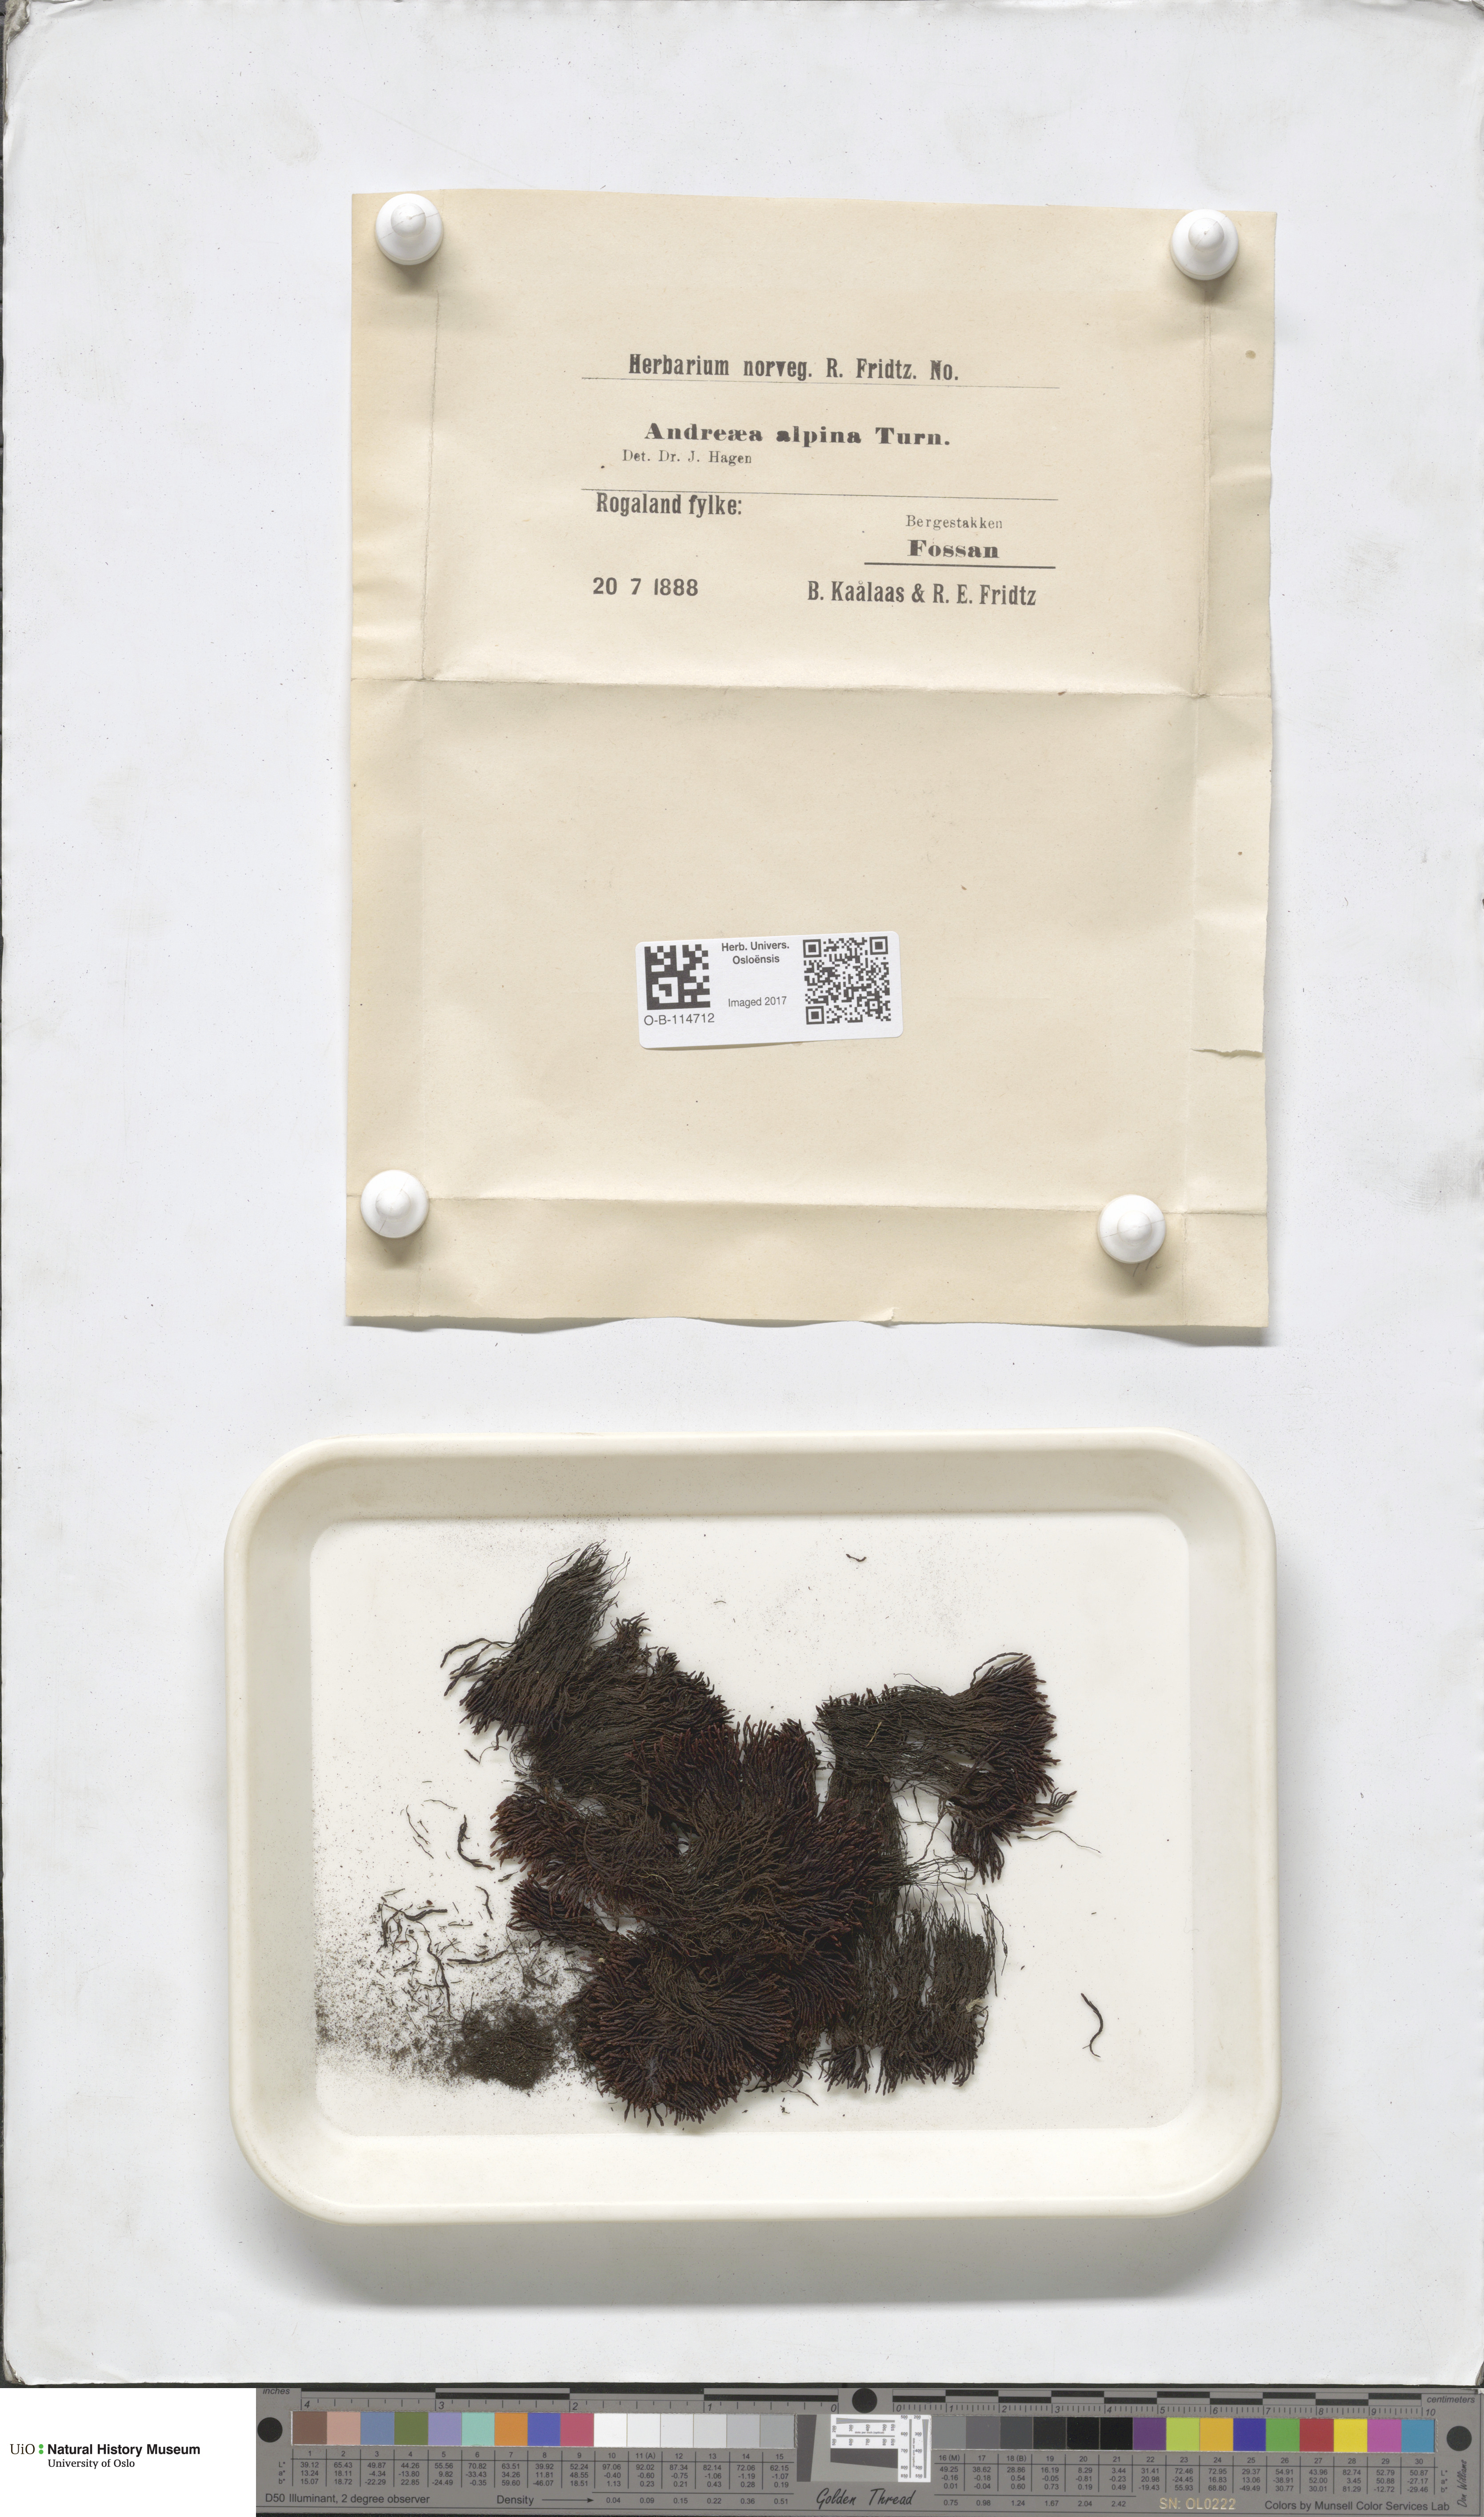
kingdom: Plantae
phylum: Bryophyta
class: Andreaeopsida
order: Andreaeales
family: Andreaeaceae
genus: Andreaea
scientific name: Andreaea hookeri
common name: Alpine rock-moss
